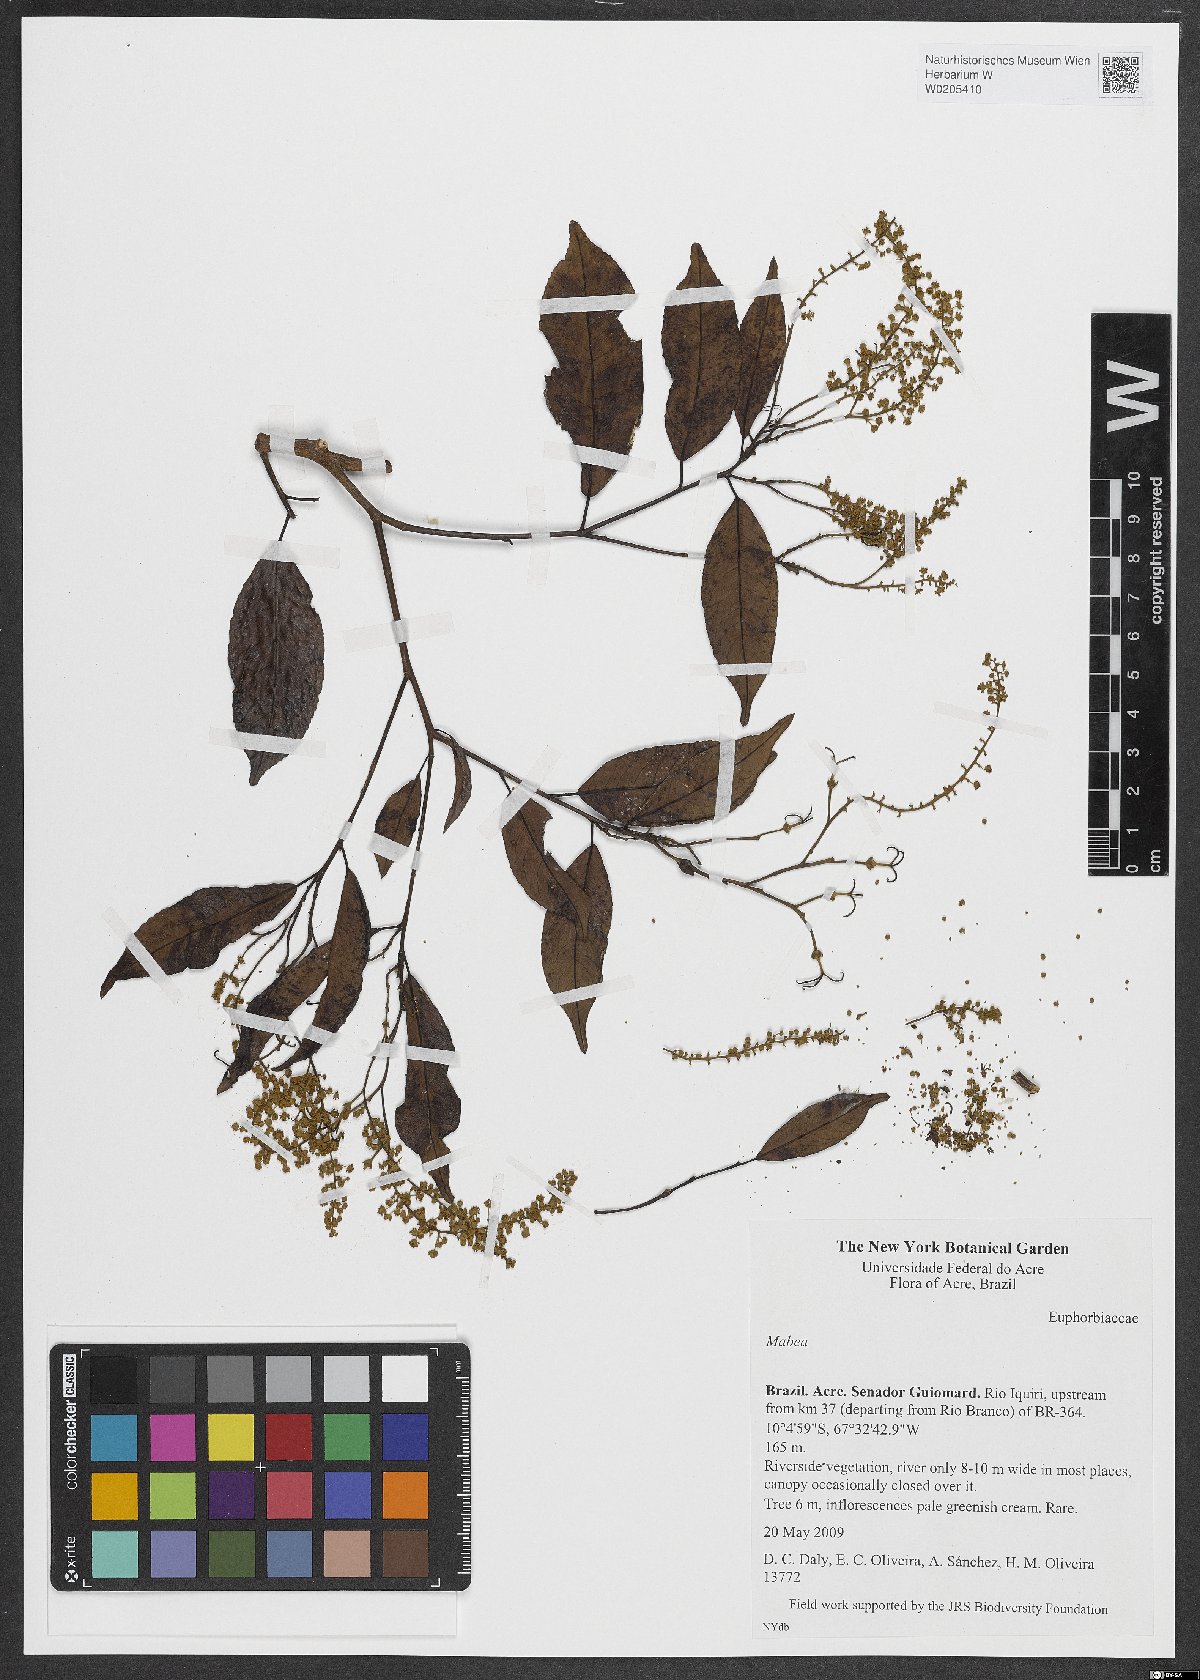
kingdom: Plantae
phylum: Tracheophyta
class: Magnoliopsida
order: Malpighiales
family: Euphorbiaceae
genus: Mabea
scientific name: Mabea
